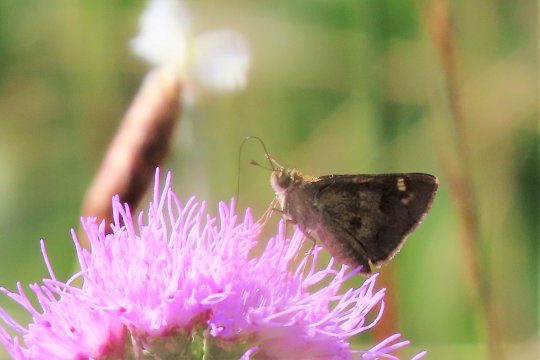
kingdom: Animalia
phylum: Arthropoda
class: Insecta
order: Lepidoptera
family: Hesperiidae
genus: Polites
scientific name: Polites vibex
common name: Whirlabout
